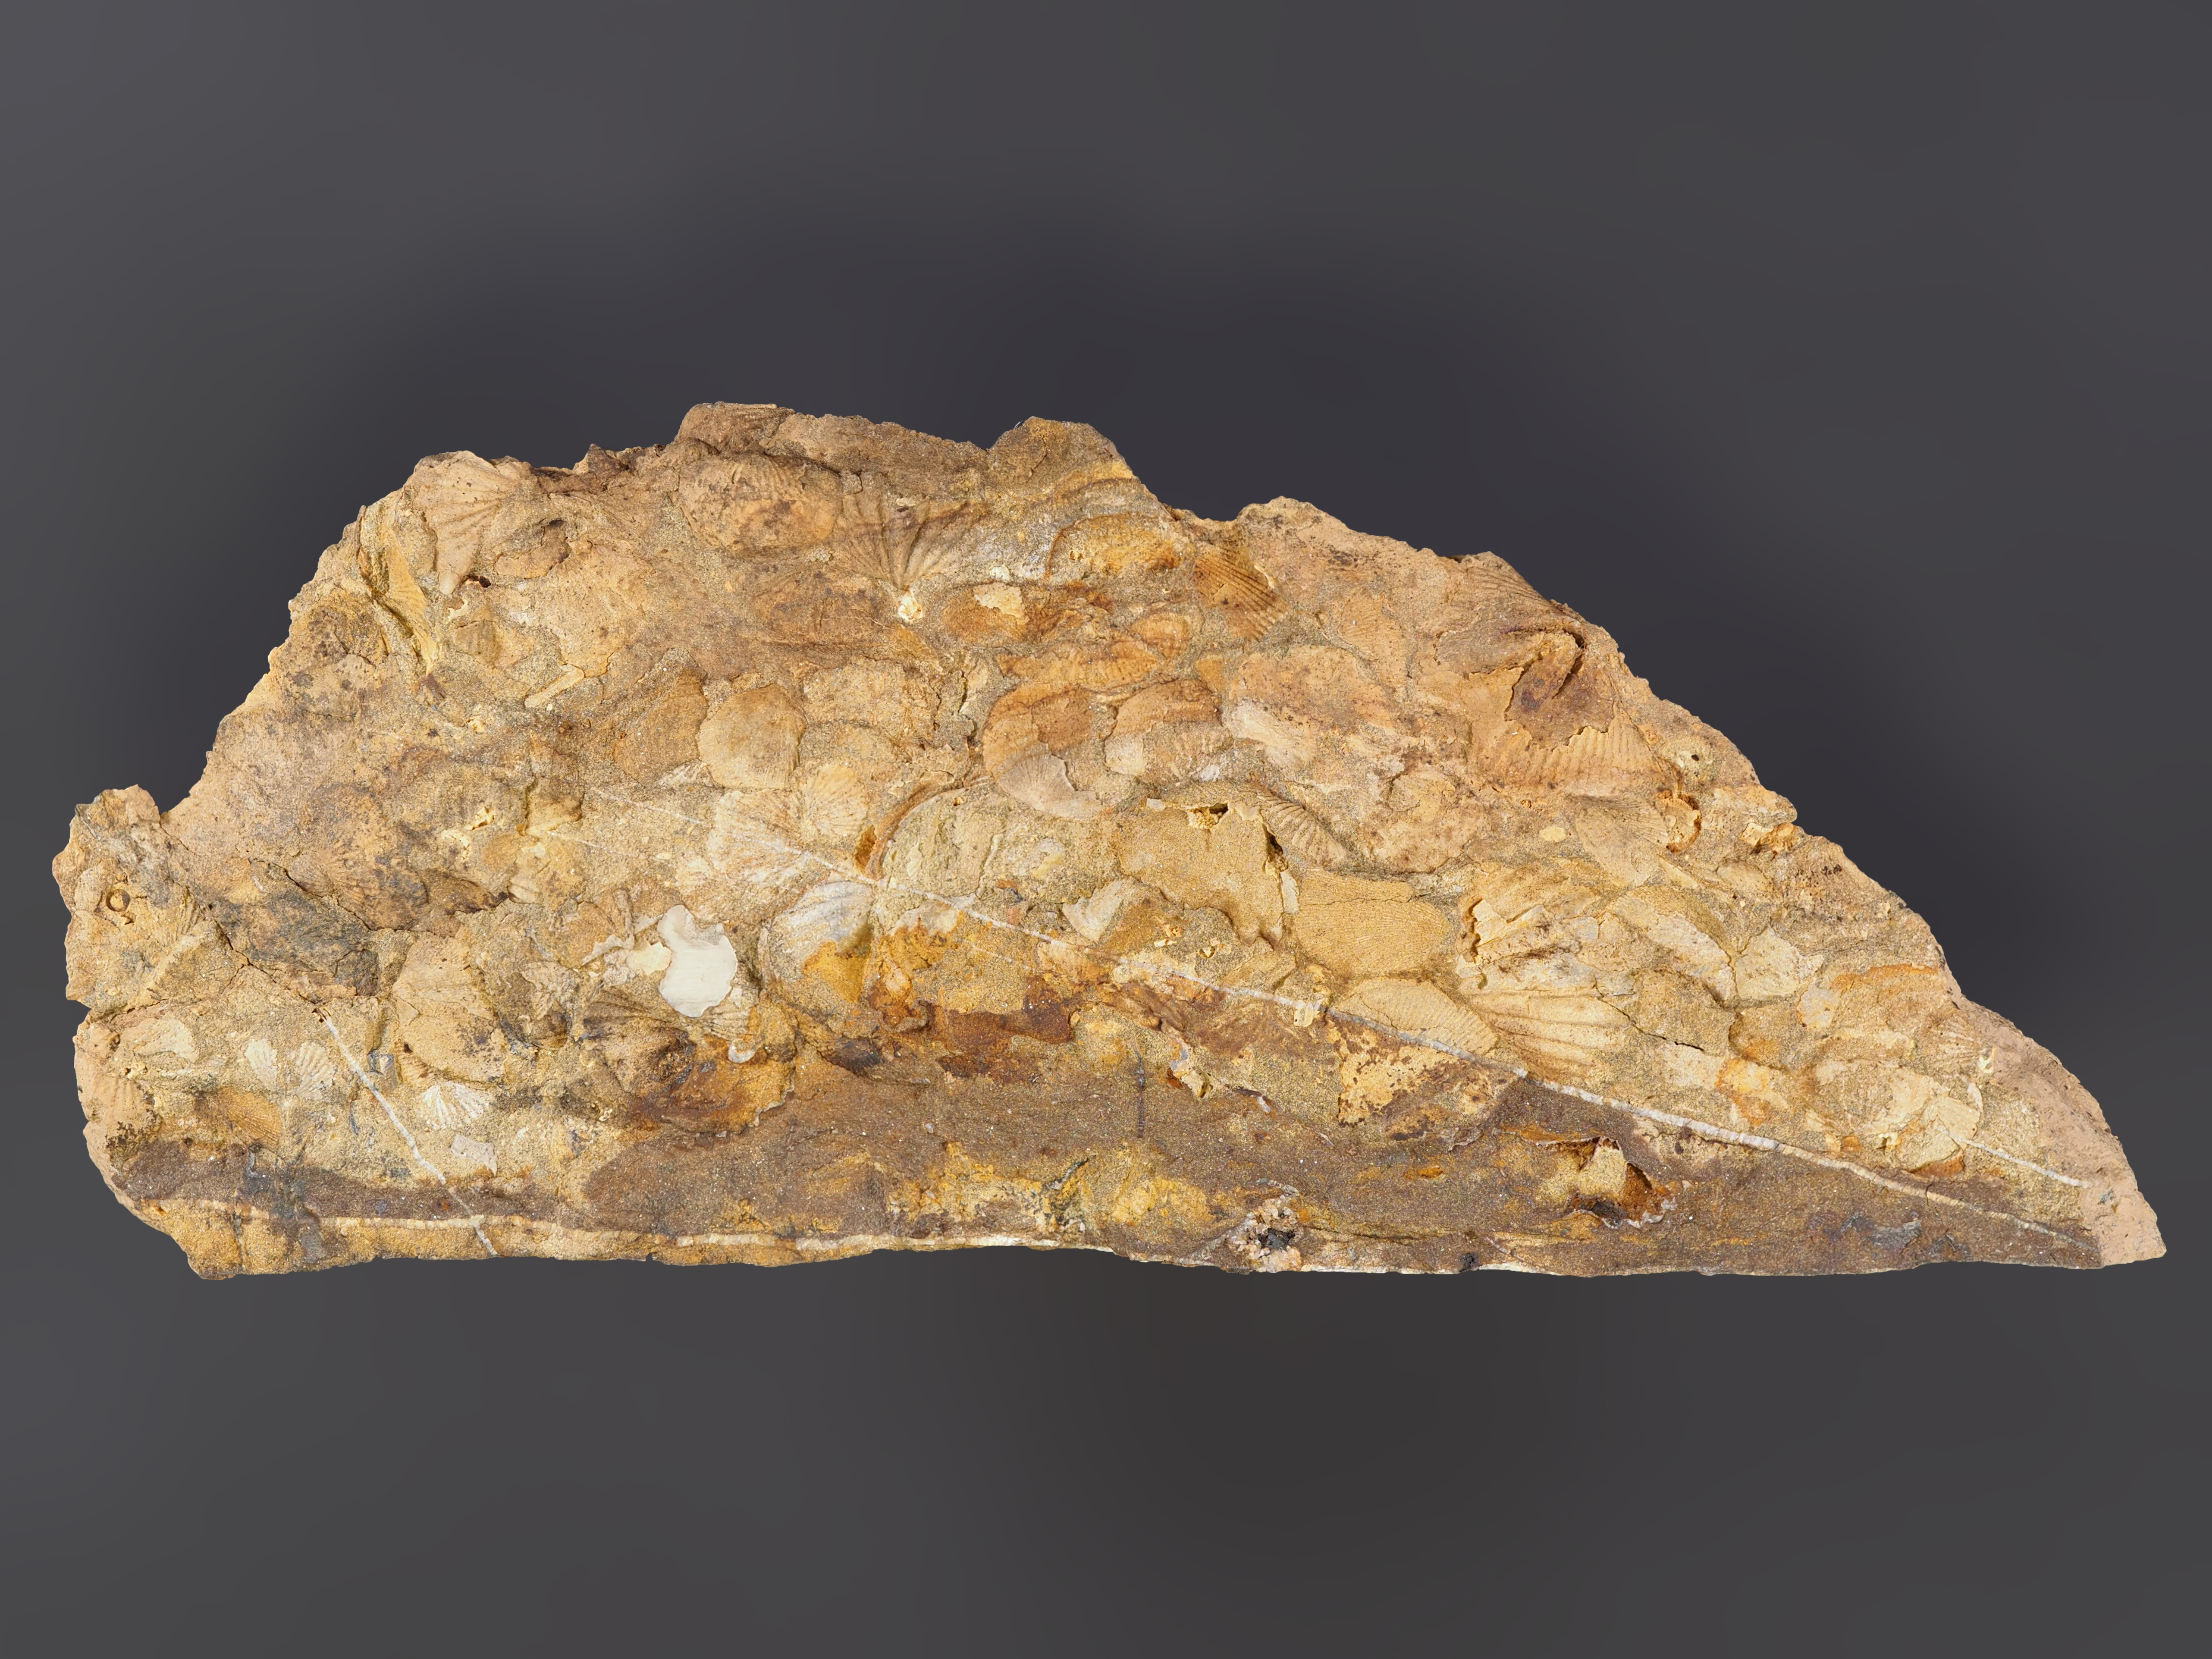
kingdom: Animalia
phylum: Brachiopoda
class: Rhynchonellata
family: Spinocyrtiidae
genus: Subcuspidella
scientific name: Subcuspidella
